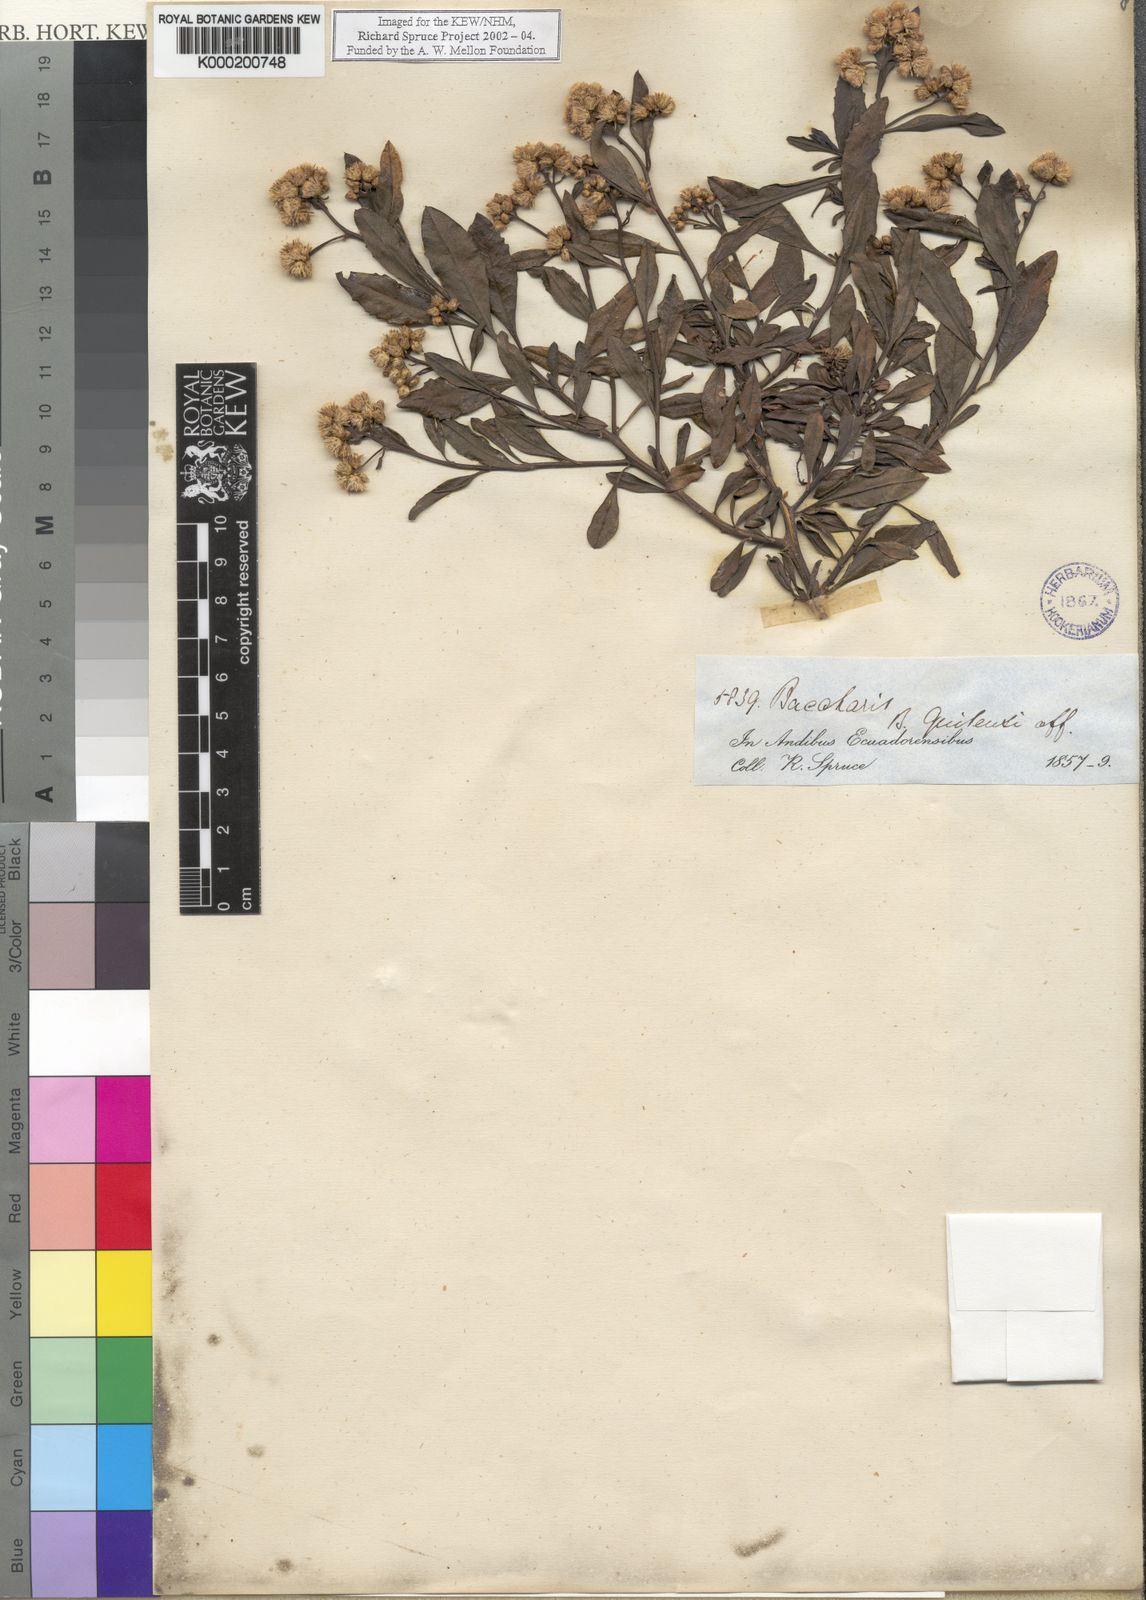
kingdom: Plantae
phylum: Tracheophyta
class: Magnoliopsida
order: Asterales
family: Asteraceae
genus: Baccharis
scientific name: Baccharis
